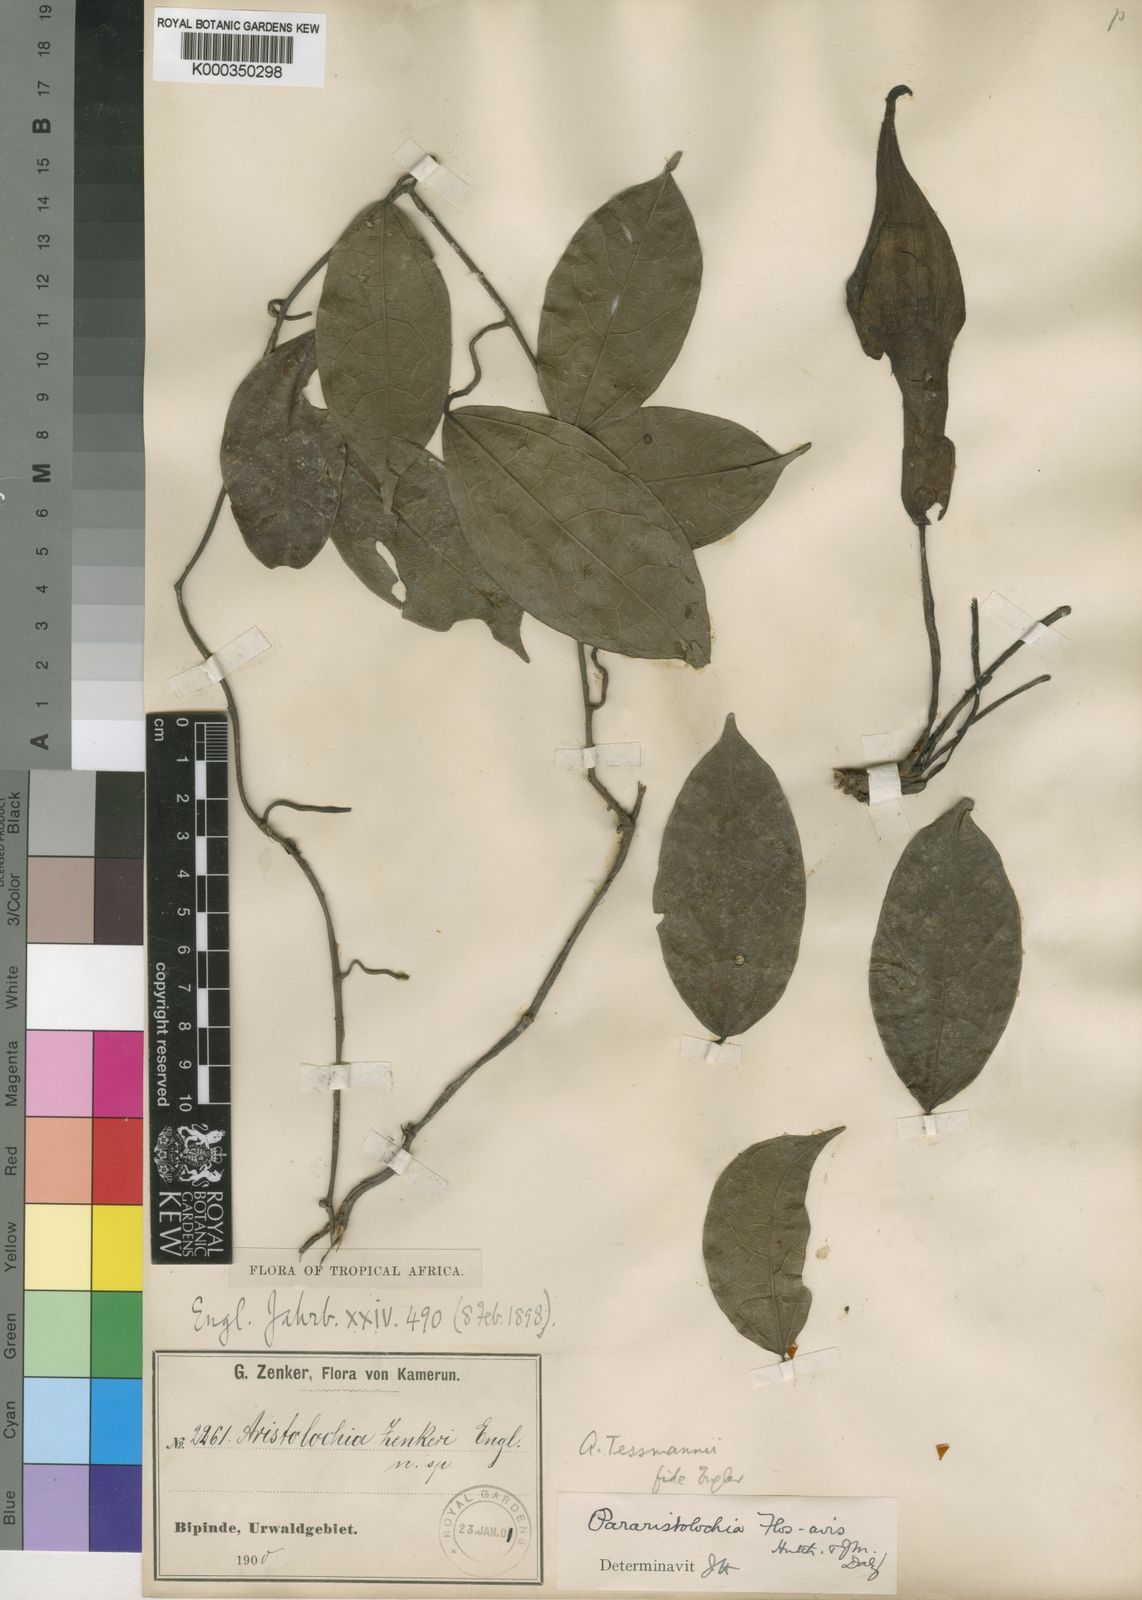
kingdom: Plantae
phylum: Tracheophyta
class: Magnoliopsida
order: Piperales
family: Aristolochiaceae
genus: Aristolochia
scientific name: Aristolochia macrocarpa
